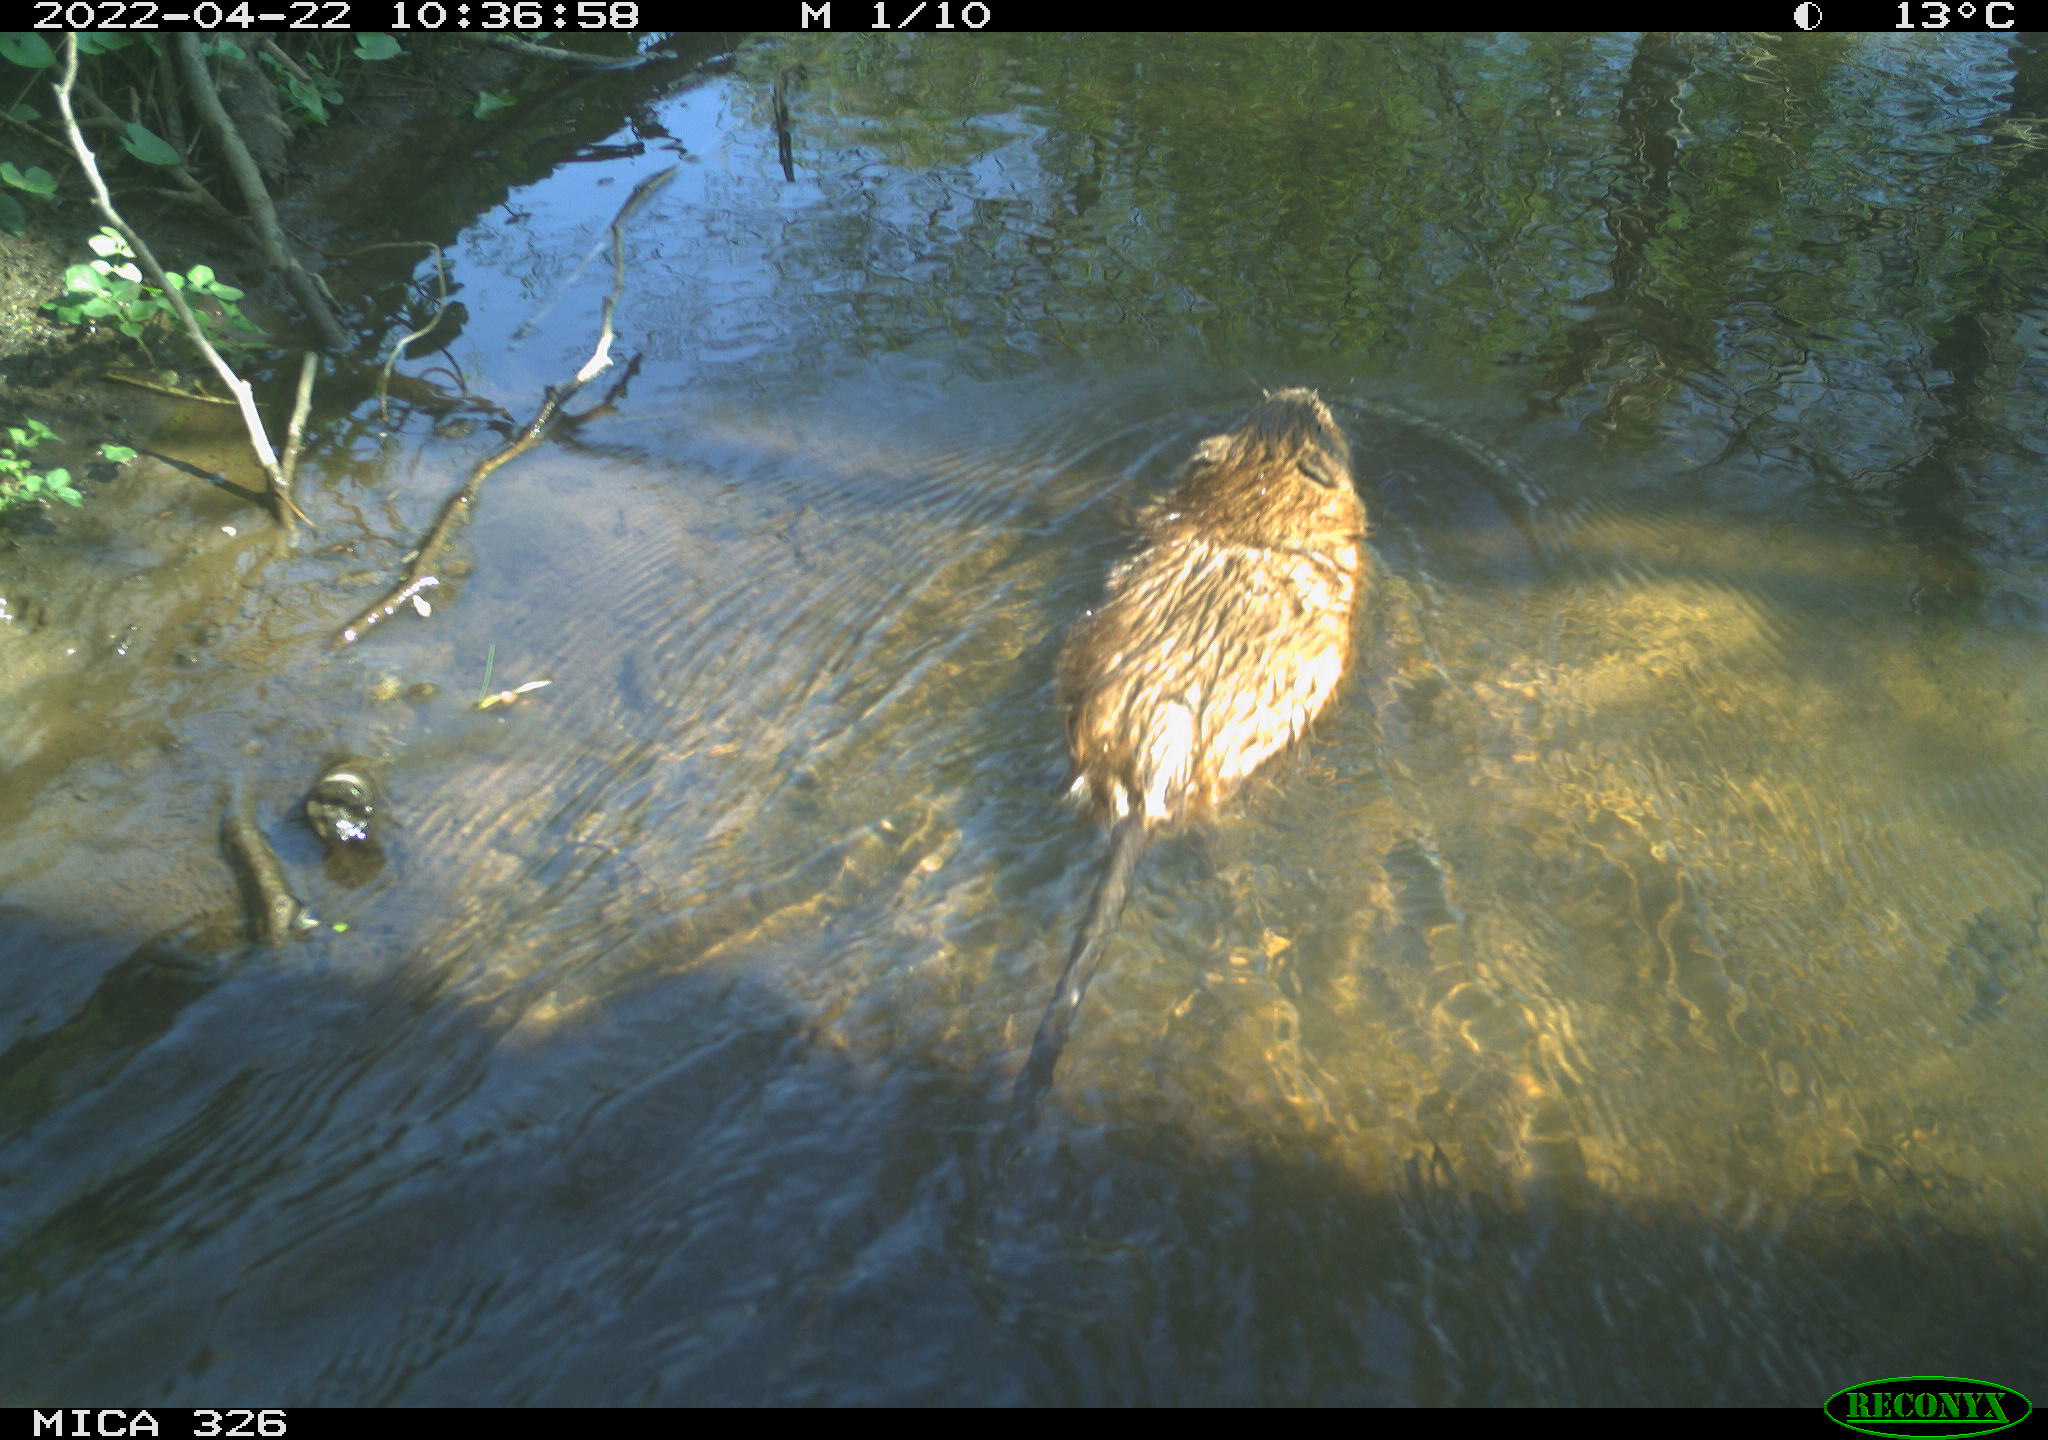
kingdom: Animalia
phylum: Chordata
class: Mammalia
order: Rodentia
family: Cricetidae
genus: Ondatra
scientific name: Ondatra zibethicus
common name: Muskrat
